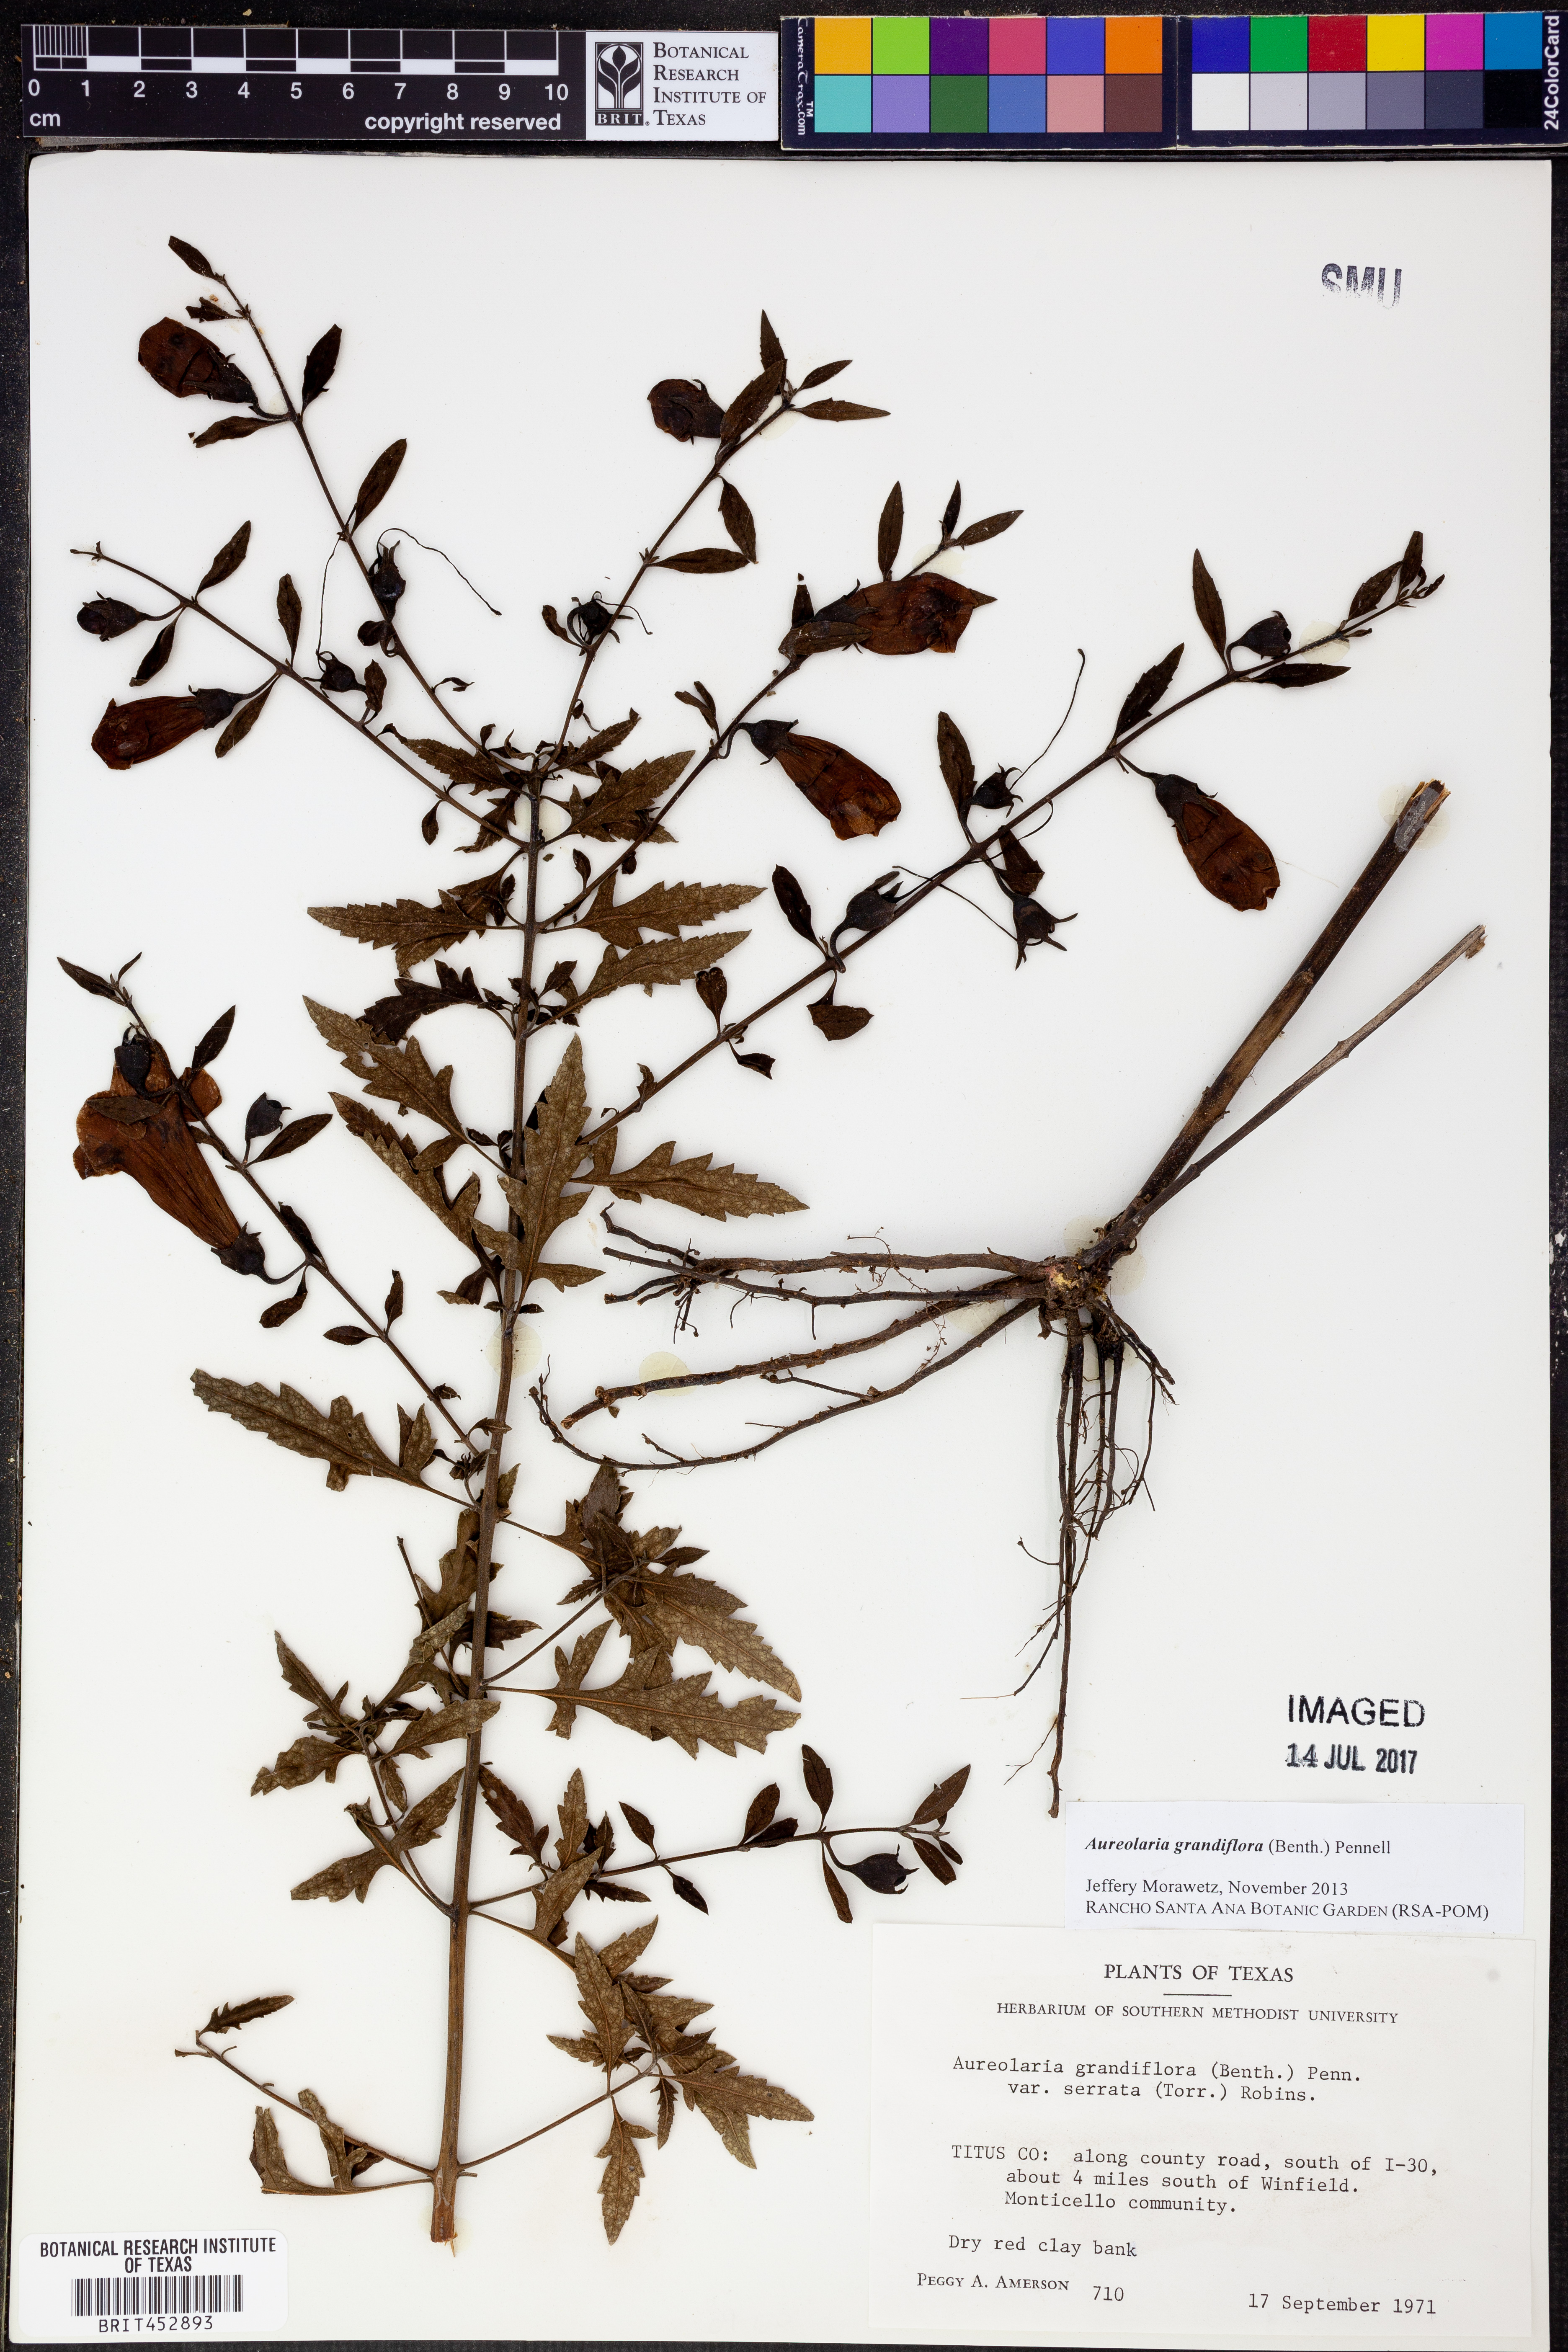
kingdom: Plantae
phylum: Tracheophyta
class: Magnoliopsida
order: Lamiales
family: Orobanchaceae
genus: Aureolaria
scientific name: Aureolaria grandiflora
